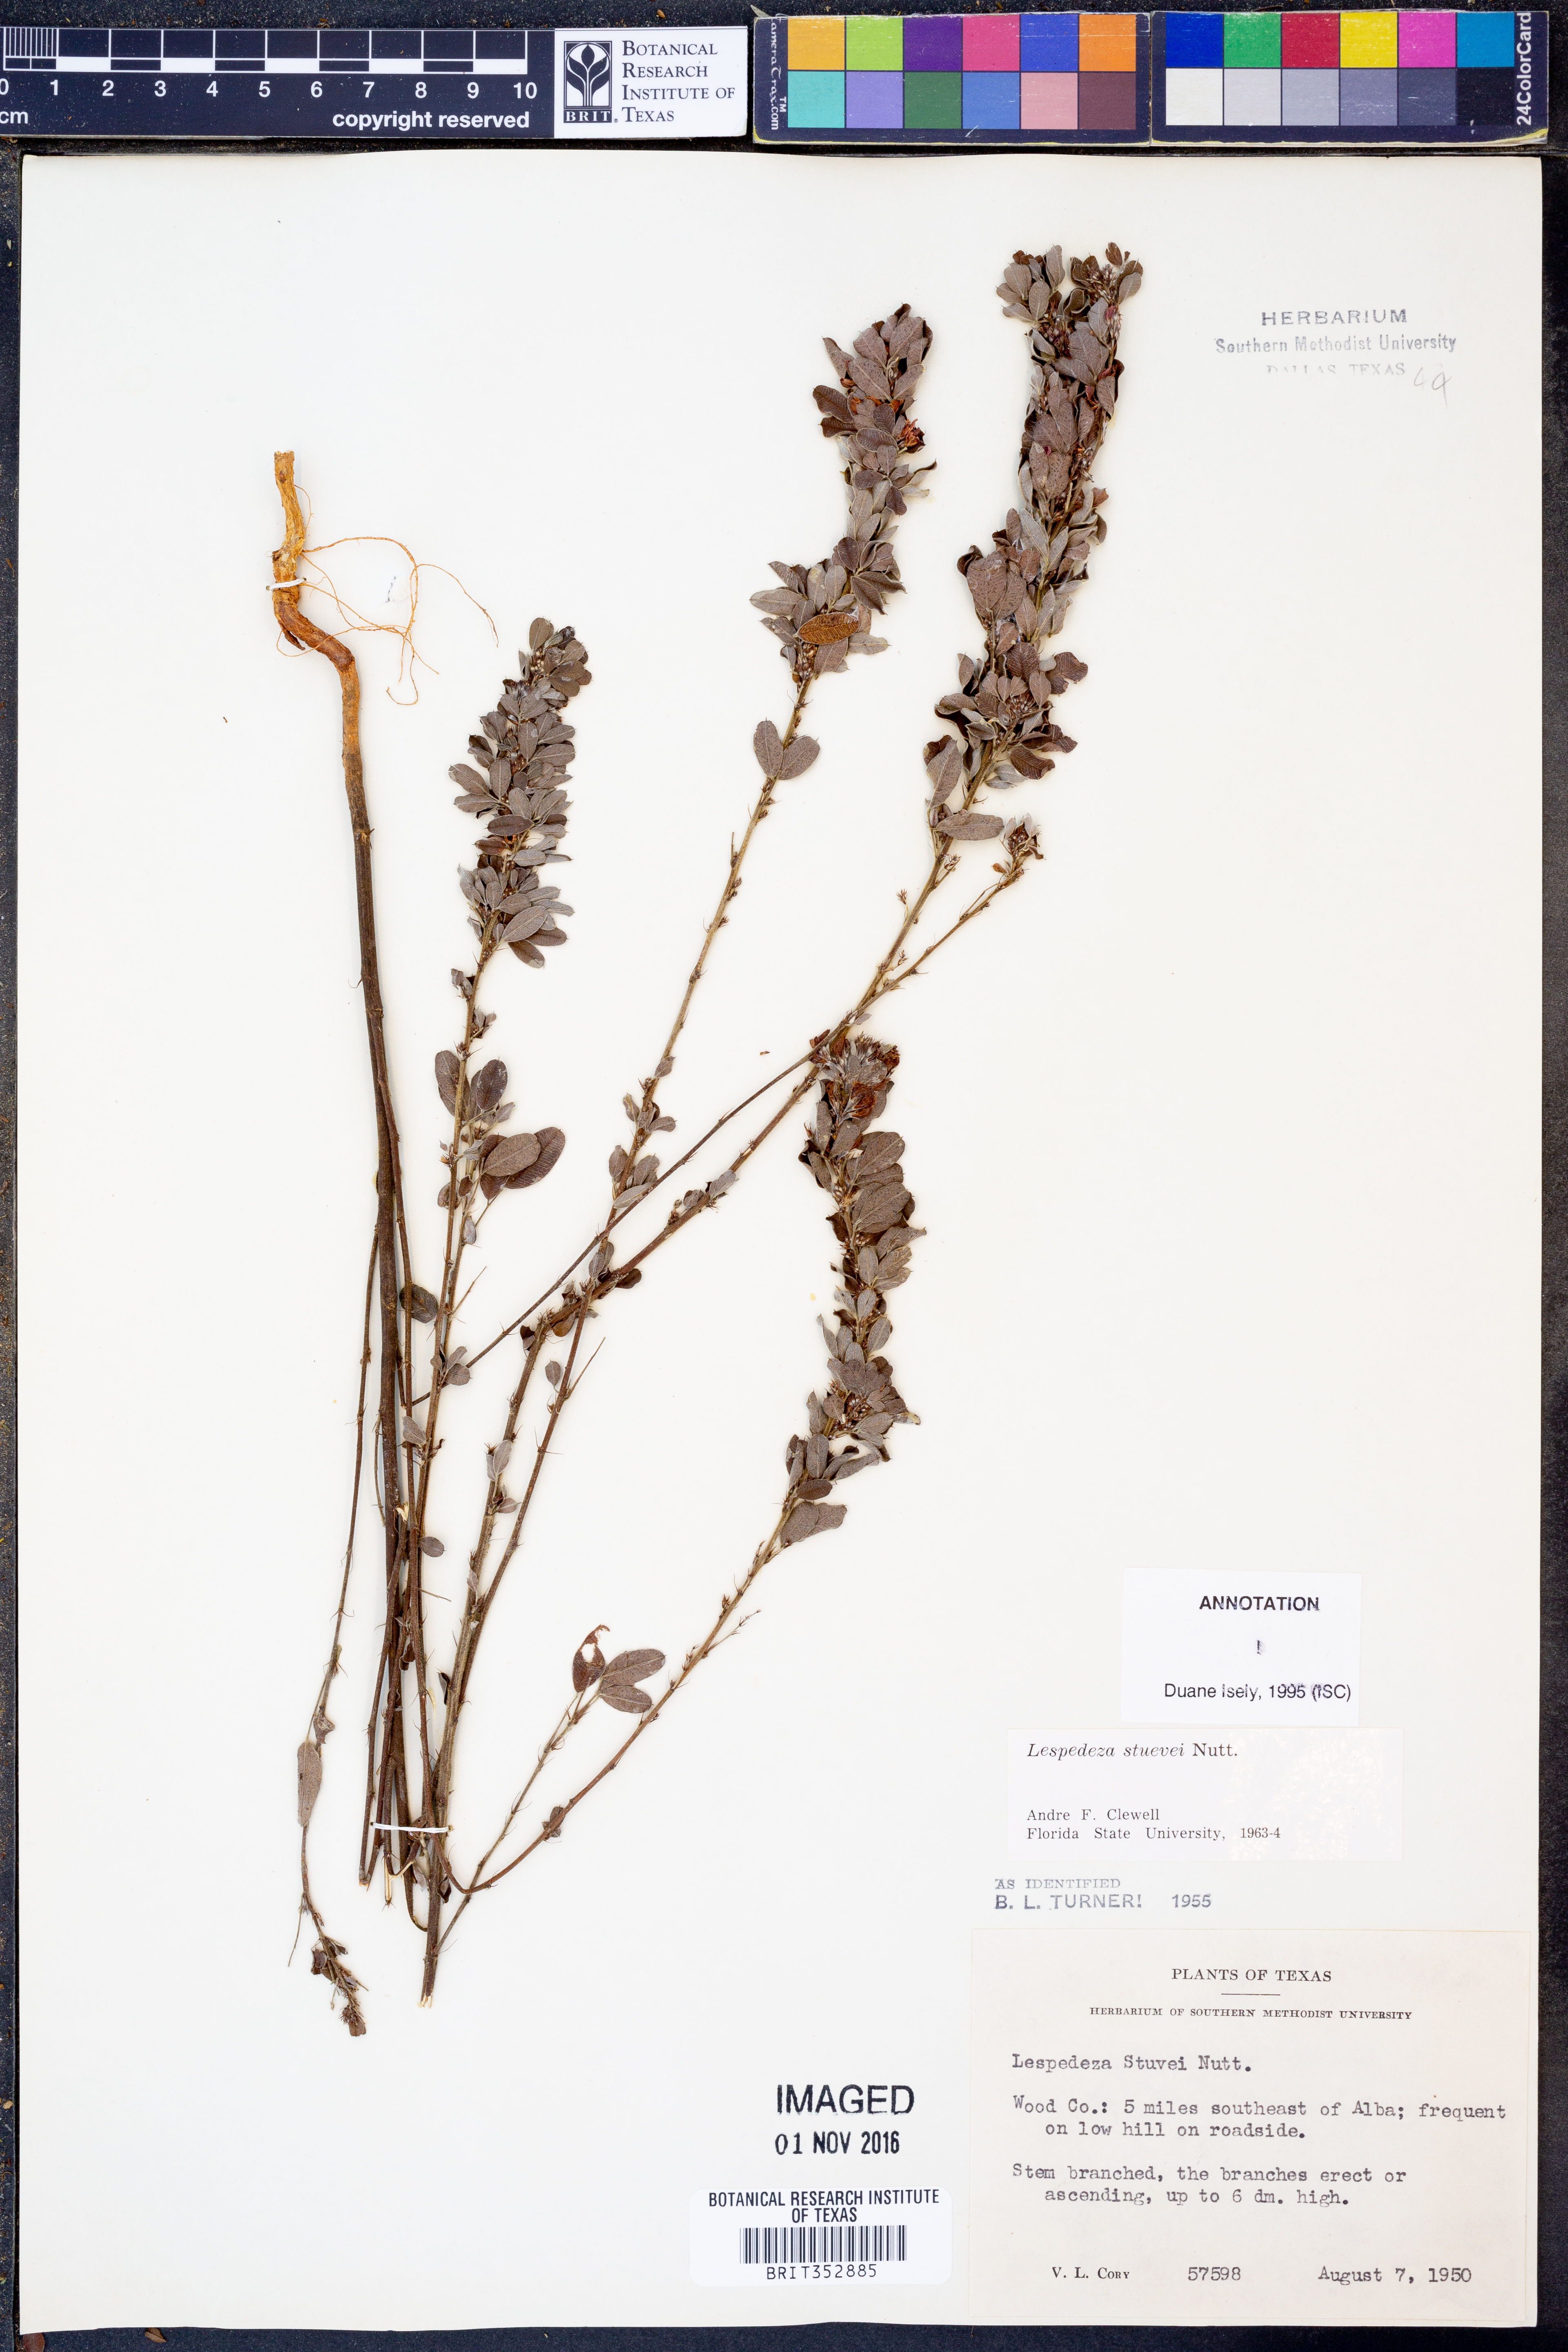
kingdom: Plantae
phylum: Tracheophyta
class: Magnoliopsida
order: Fabales
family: Fabaceae
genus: Lespedeza
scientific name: Lespedeza stuevei
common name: Tall bush-clover
